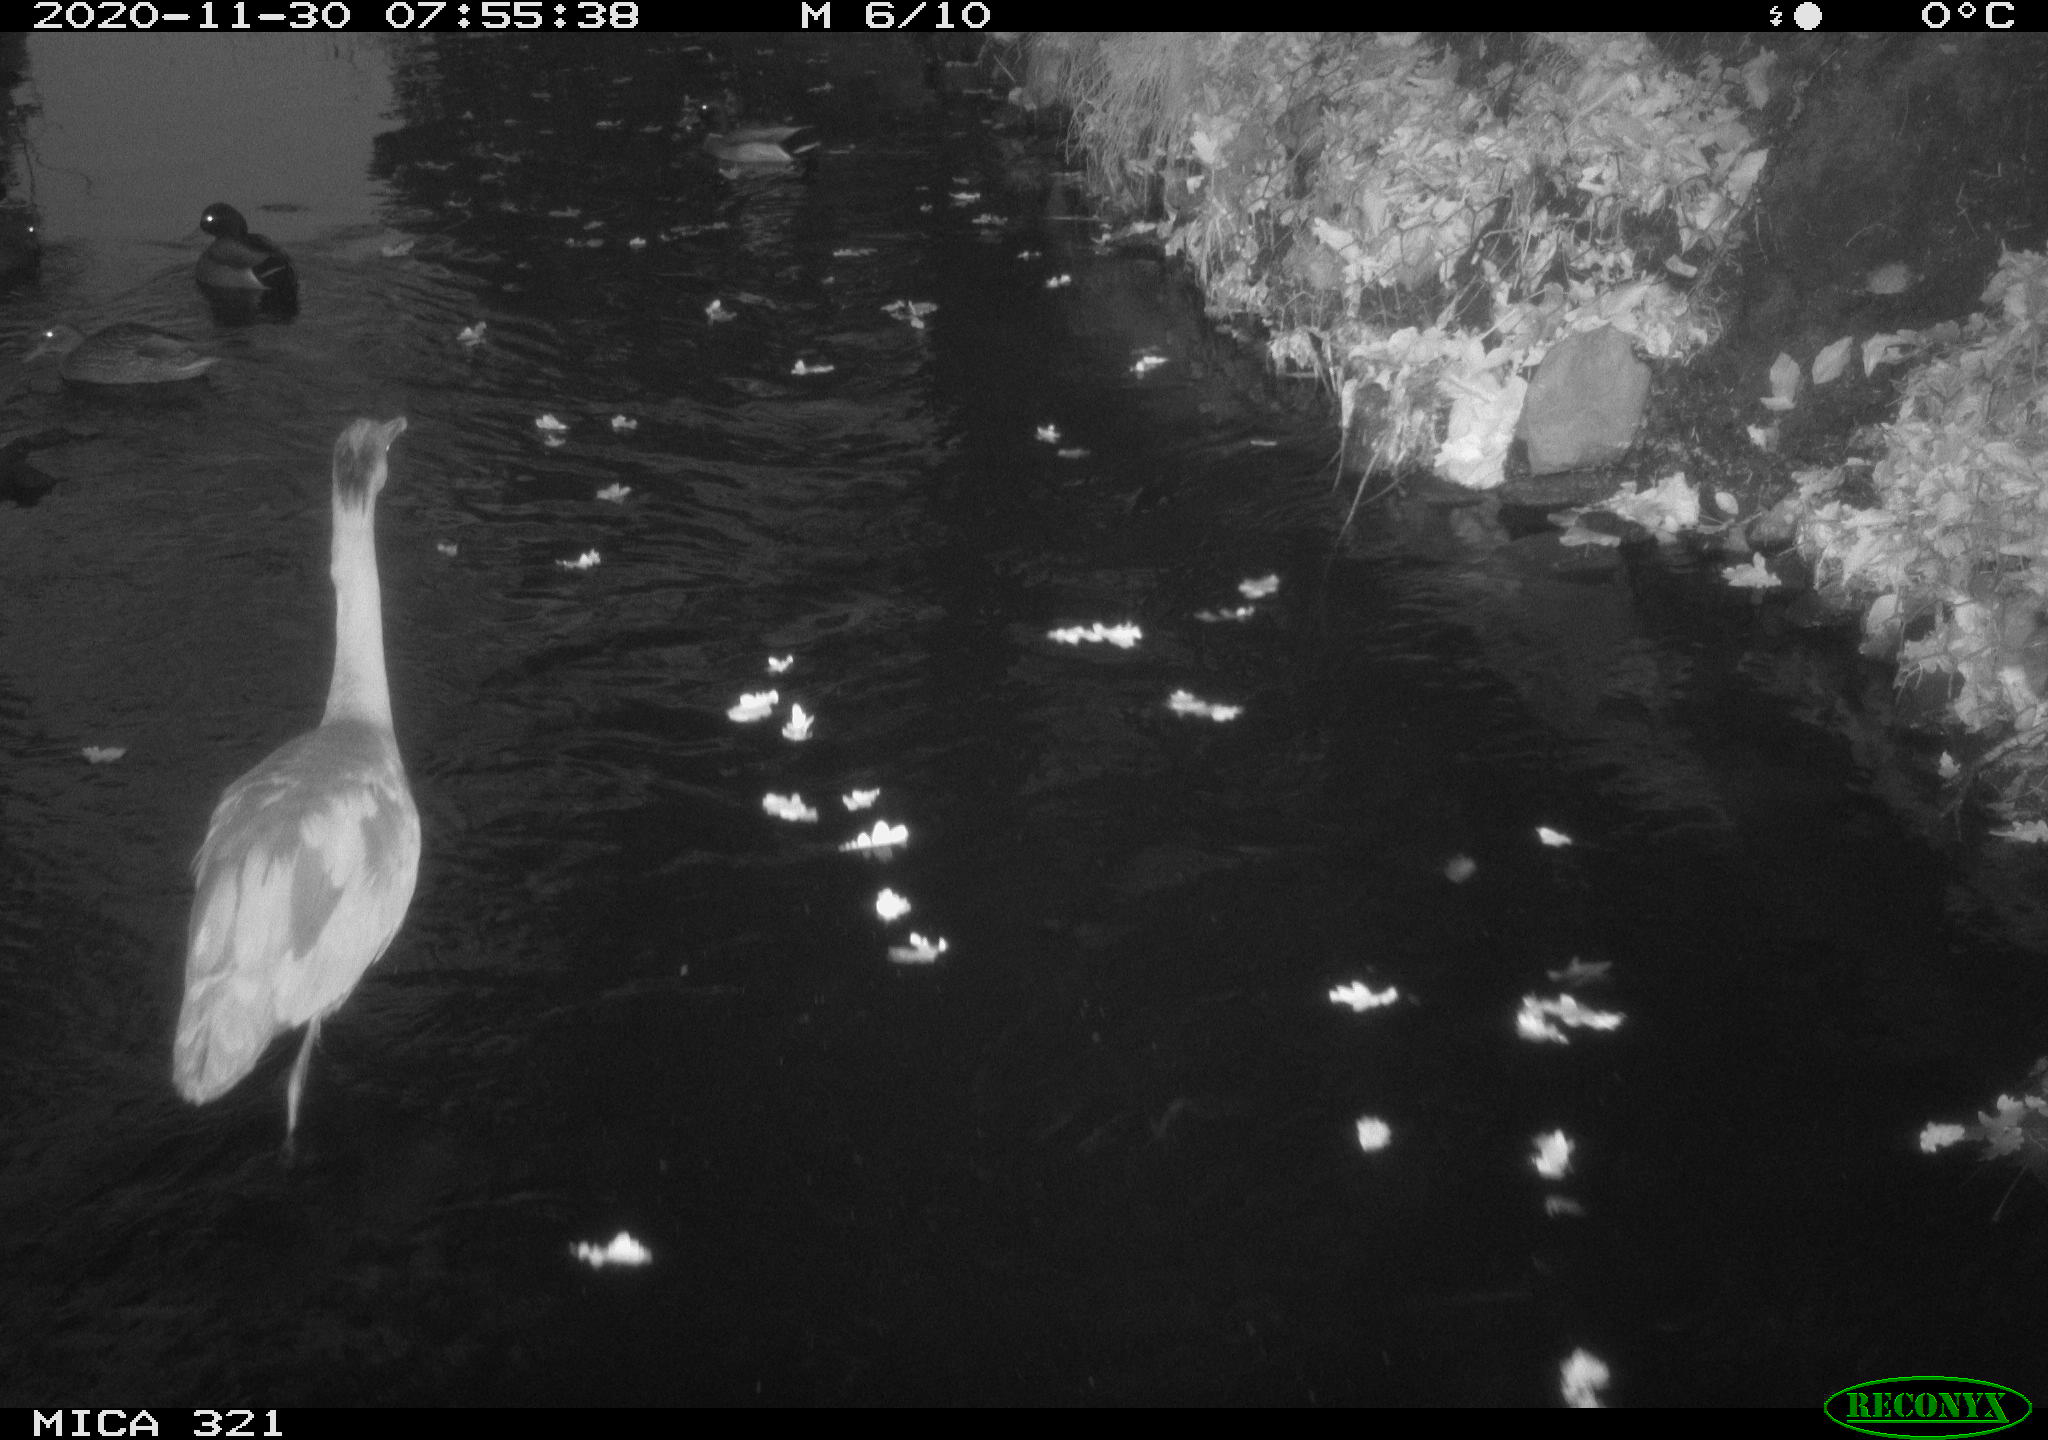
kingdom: Animalia
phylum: Chordata
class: Aves
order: Anseriformes
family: Anatidae
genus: Anas
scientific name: Anas platyrhynchos
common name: Mallard
